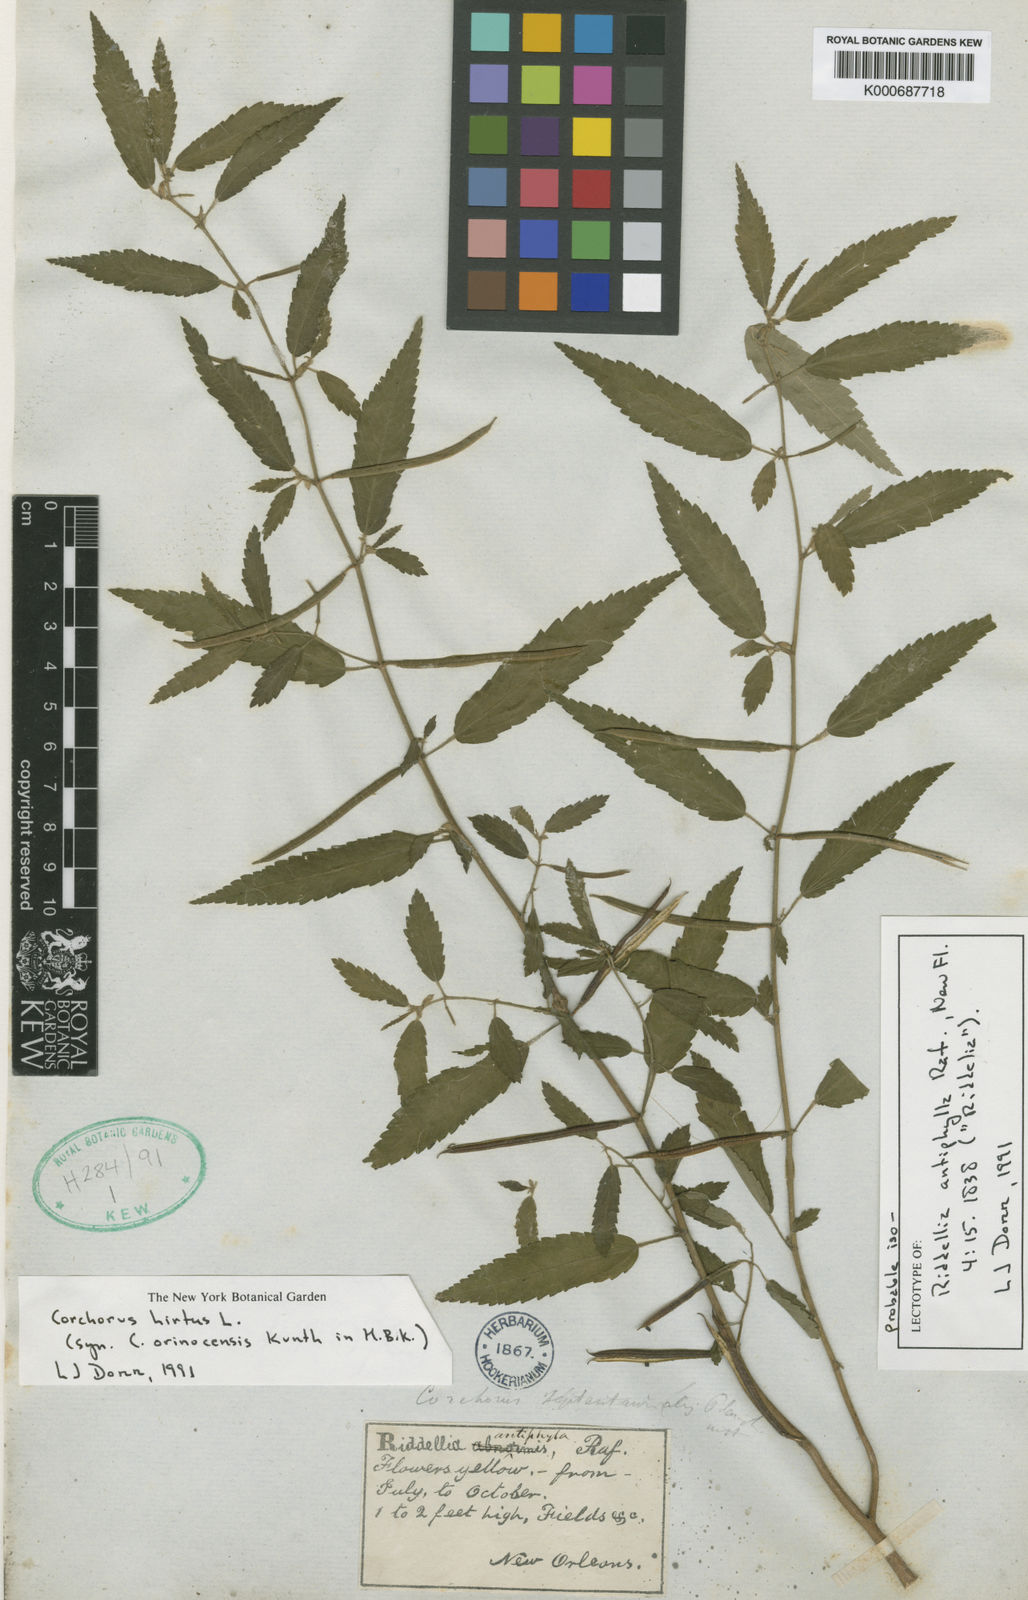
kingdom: Plantae
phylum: Tracheophyta
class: Magnoliopsida
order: Malvales
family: Malvaceae
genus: Corchorus
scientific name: Corchorus hirtus
